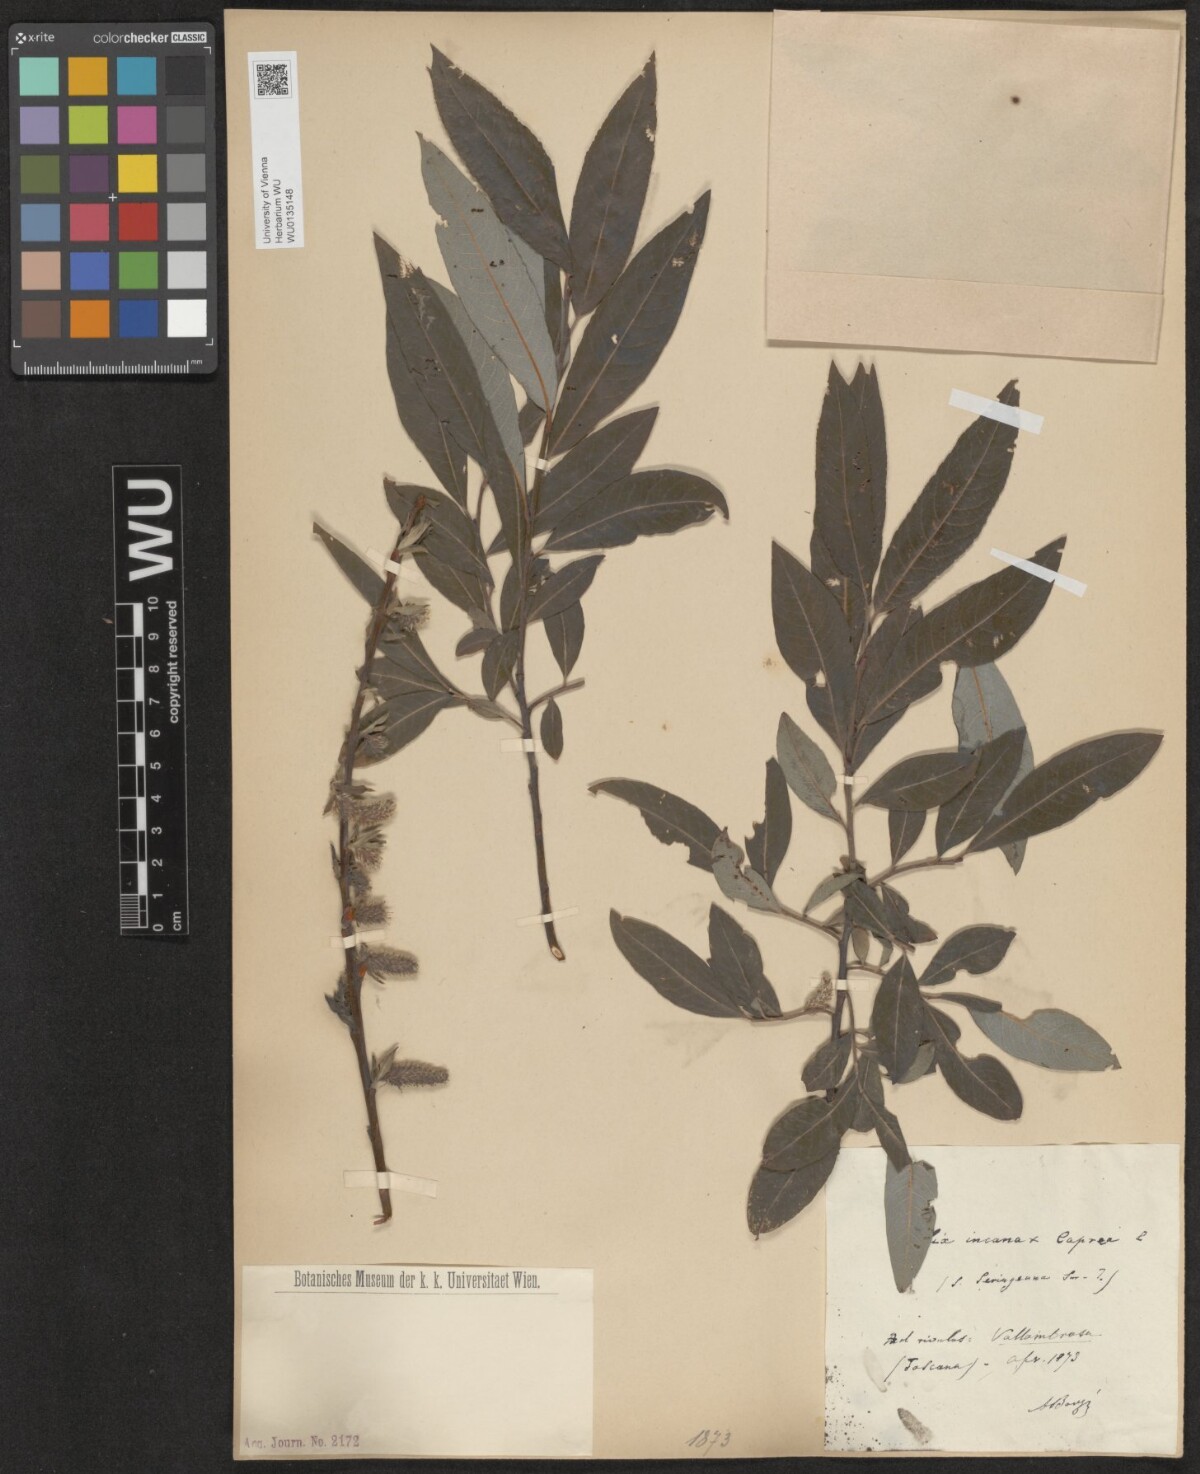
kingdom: Plantae
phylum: Tracheophyta
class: Magnoliopsida
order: Malpighiales
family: Salicaceae
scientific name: Salicaceae
